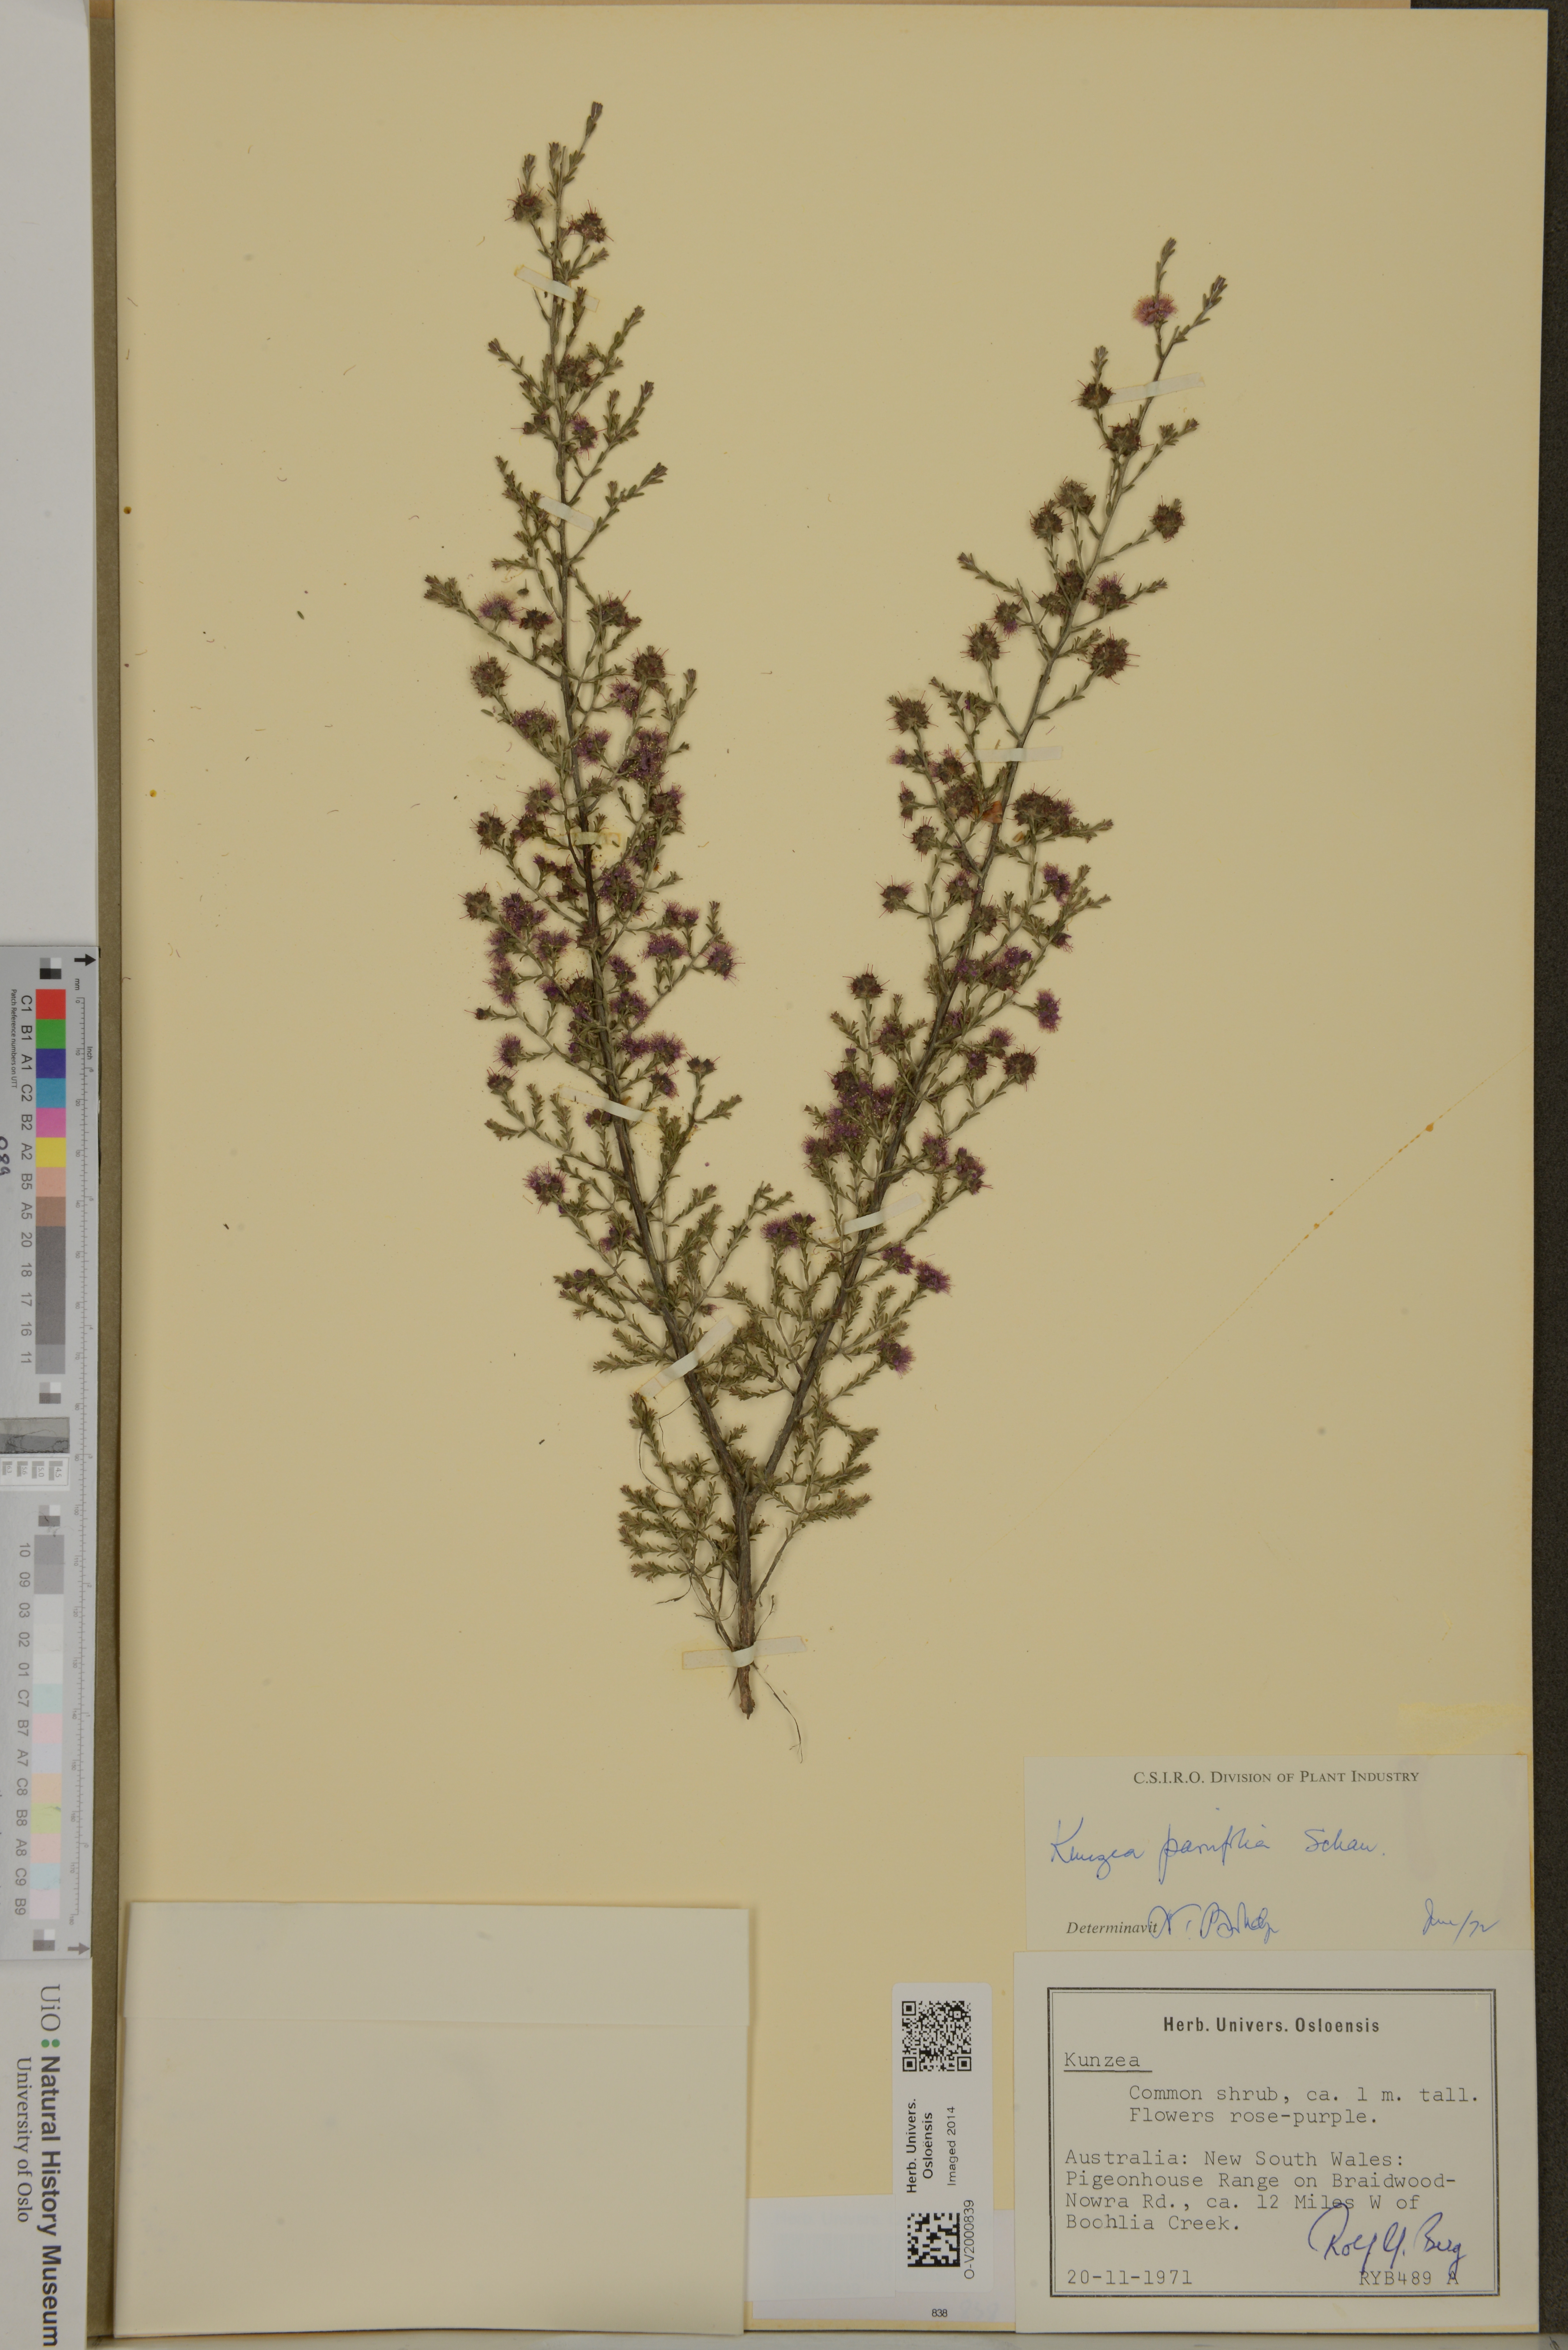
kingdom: Plantae
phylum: Tracheophyta
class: Magnoliopsida
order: Myrtales
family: Myrtaceae
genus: Kunzea
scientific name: Kunzea parvifolia
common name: Violet kunzea
